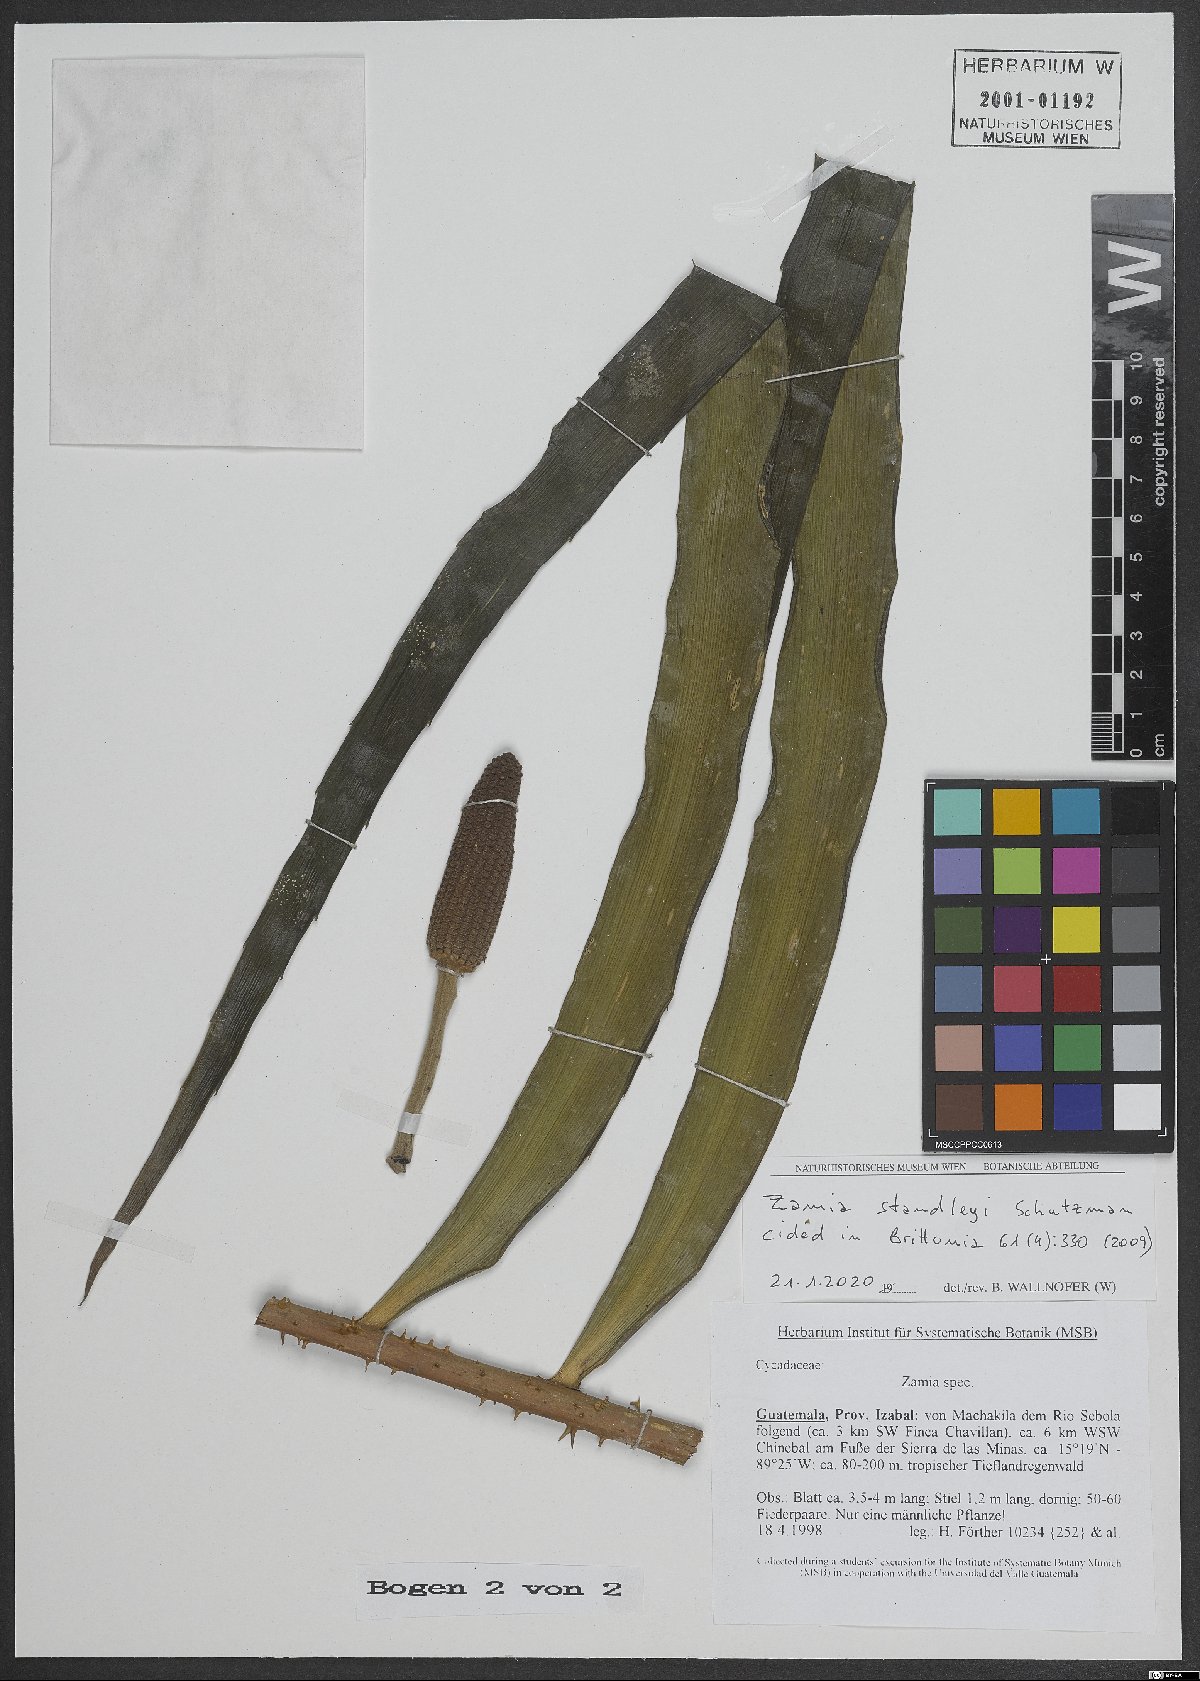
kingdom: Plantae
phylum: Tracheophyta
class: Cycadopsida
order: Cycadales
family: Zamiaceae
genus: Zamia
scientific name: Zamia standleyi
